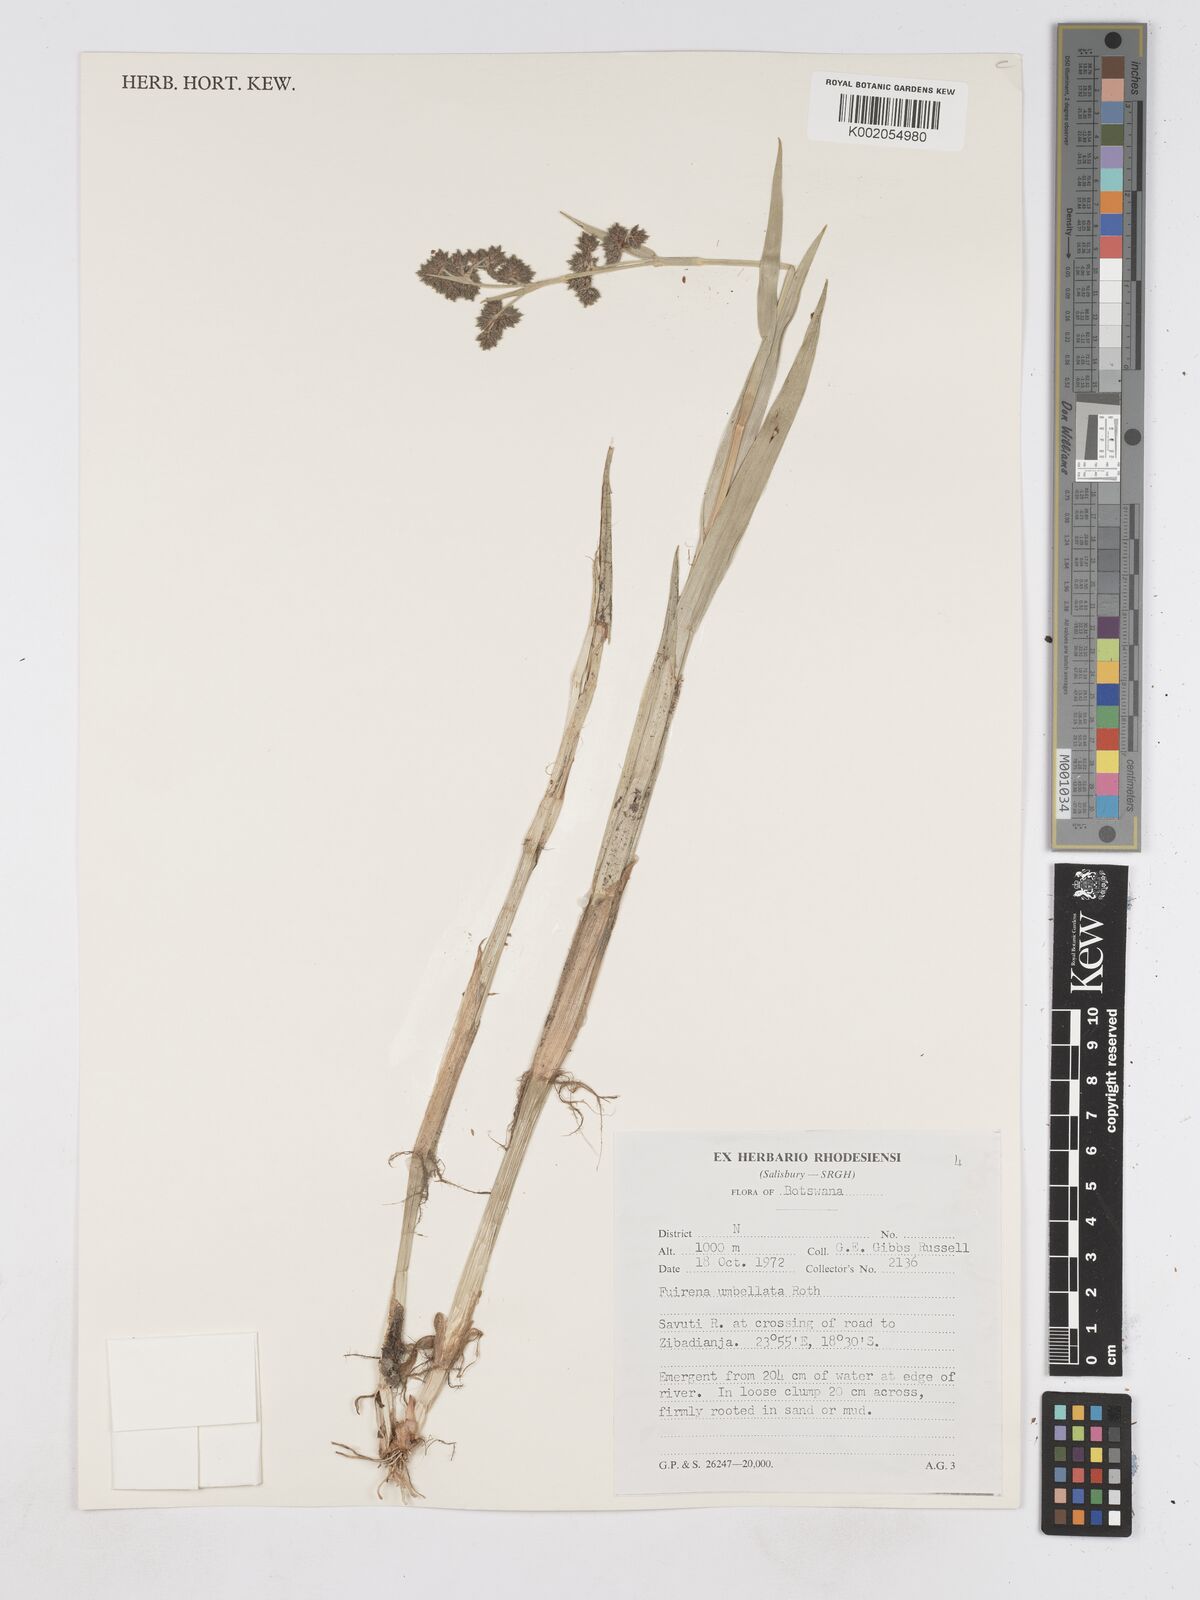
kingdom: Plantae
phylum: Tracheophyta
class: Liliopsida
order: Poales
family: Cyperaceae
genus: Fuirena
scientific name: Fuirena umbellata
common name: Yefen
